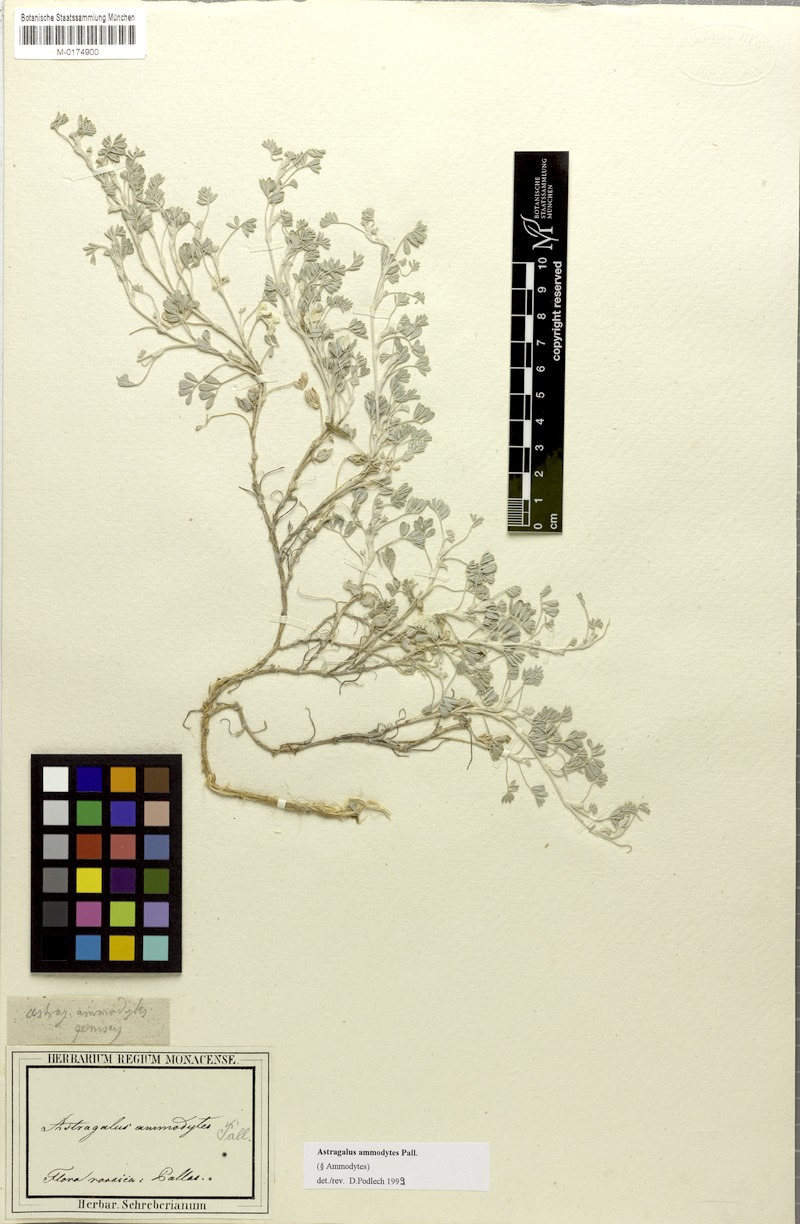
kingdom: Plantae
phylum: Tracheophyta
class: Magnoliopsida
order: Fabales
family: Fabaceae
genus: Astragalus
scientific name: Astragalus ammodytes
